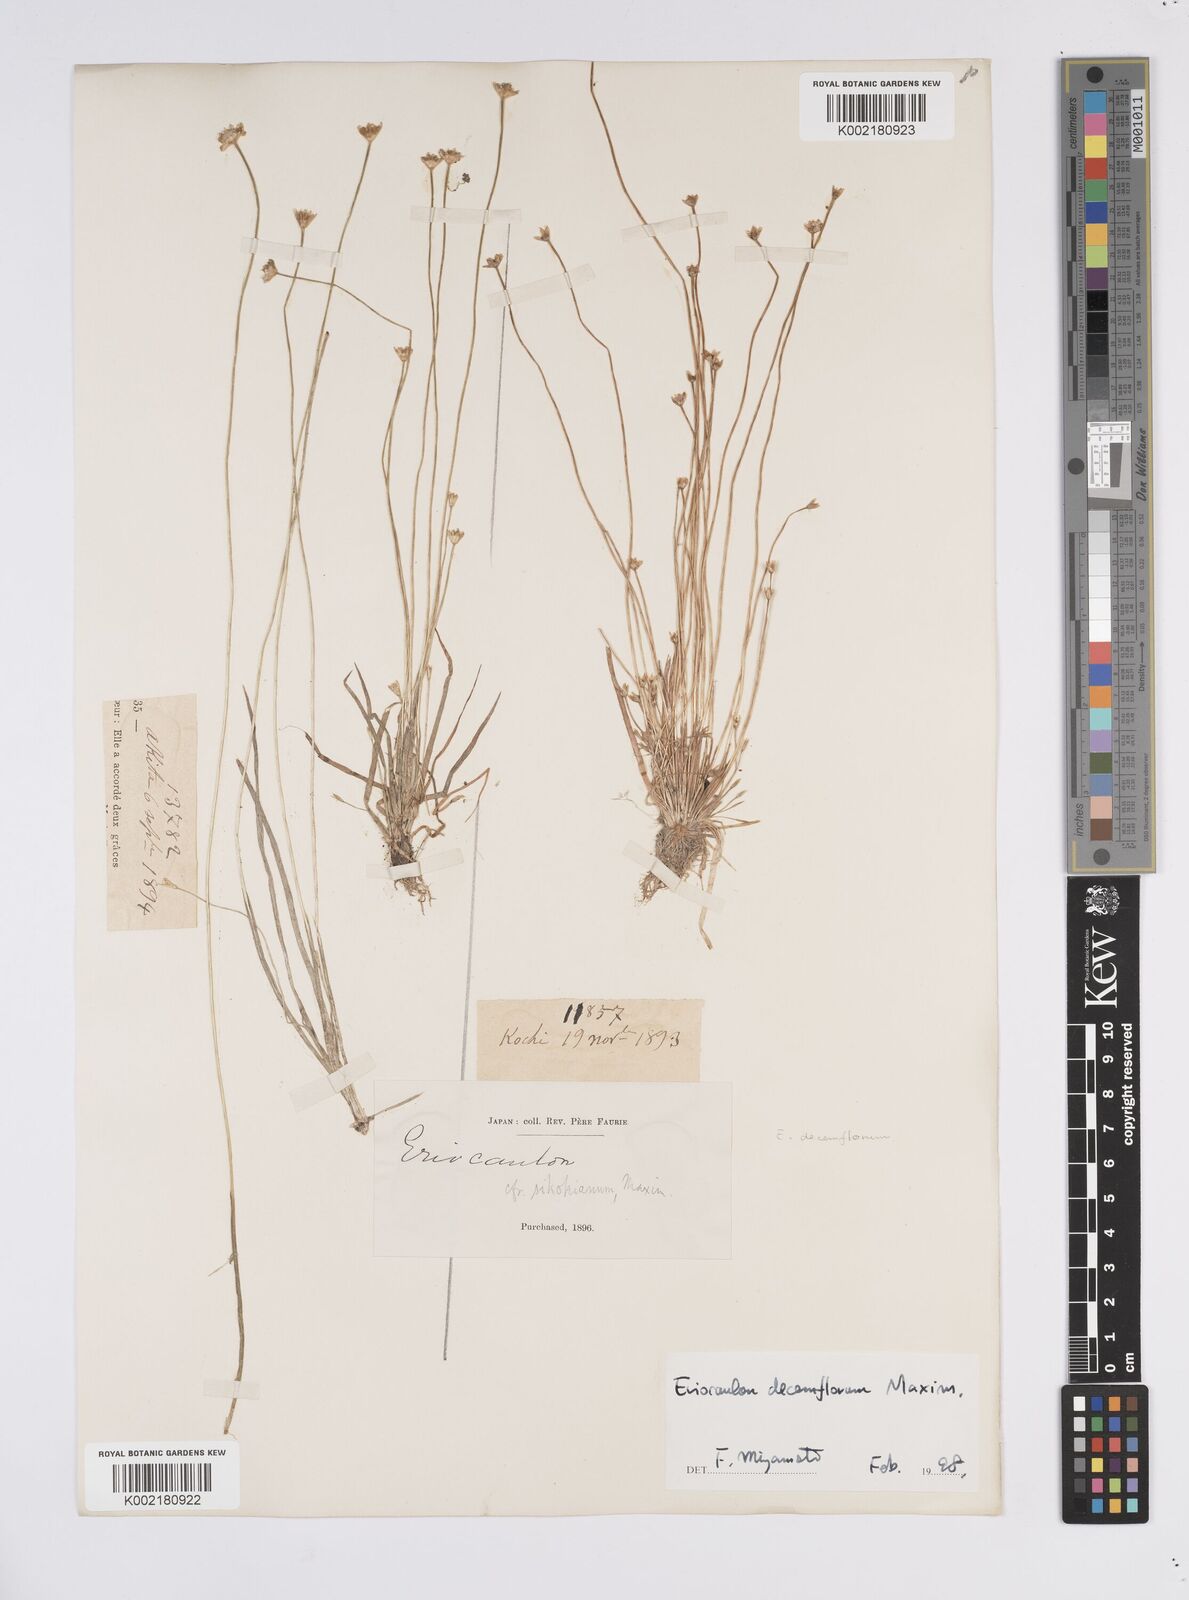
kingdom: Plantae
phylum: Tracheophyta
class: Liliopsida
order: Poales
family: Eriocaulaceae
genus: Eriocaulon
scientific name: Eriocaulon decemflorum
